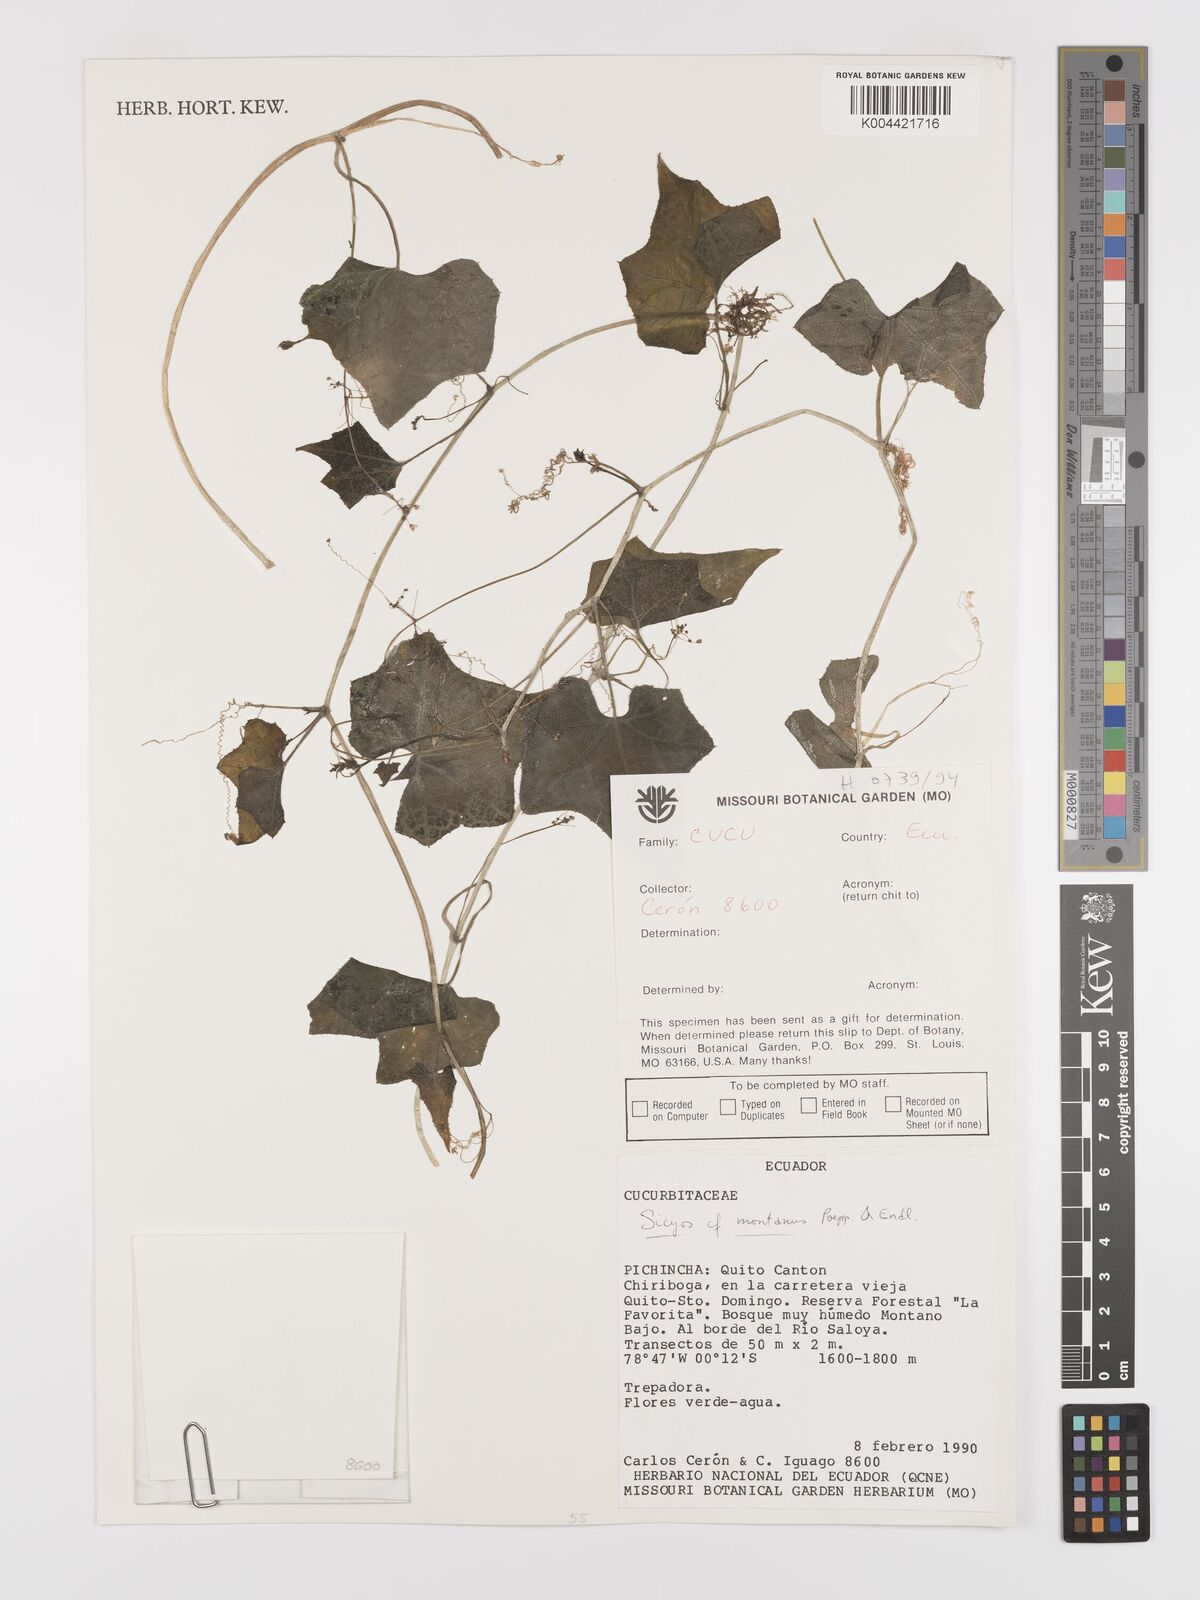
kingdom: Plantae
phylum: Tracheophyta
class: Magnoliopsida
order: Cucurbitales
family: Cucurbitaceae
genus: Sicyos
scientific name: Sicyos
